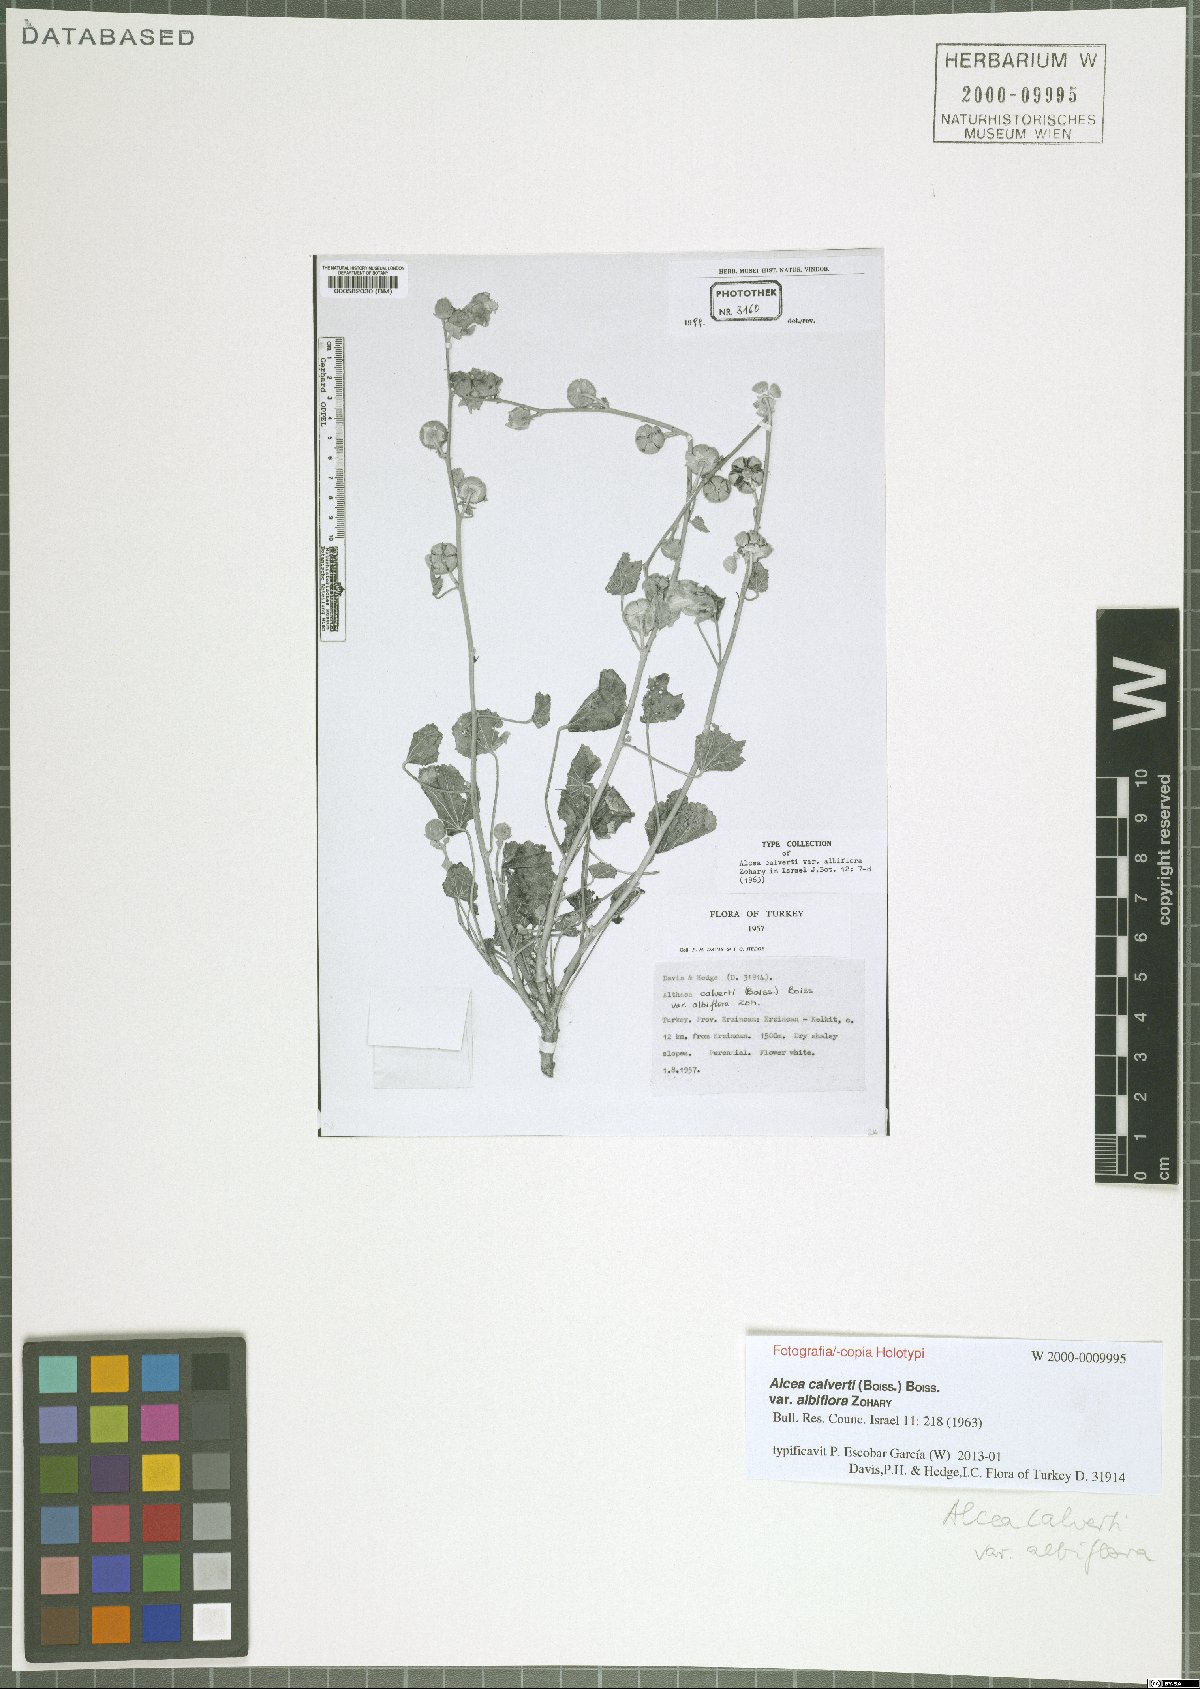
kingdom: Plantae
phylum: Tracheophyta
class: Magnoliopsida
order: Malvales
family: Malvaceae
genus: Alcea
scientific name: Alcea calverti
